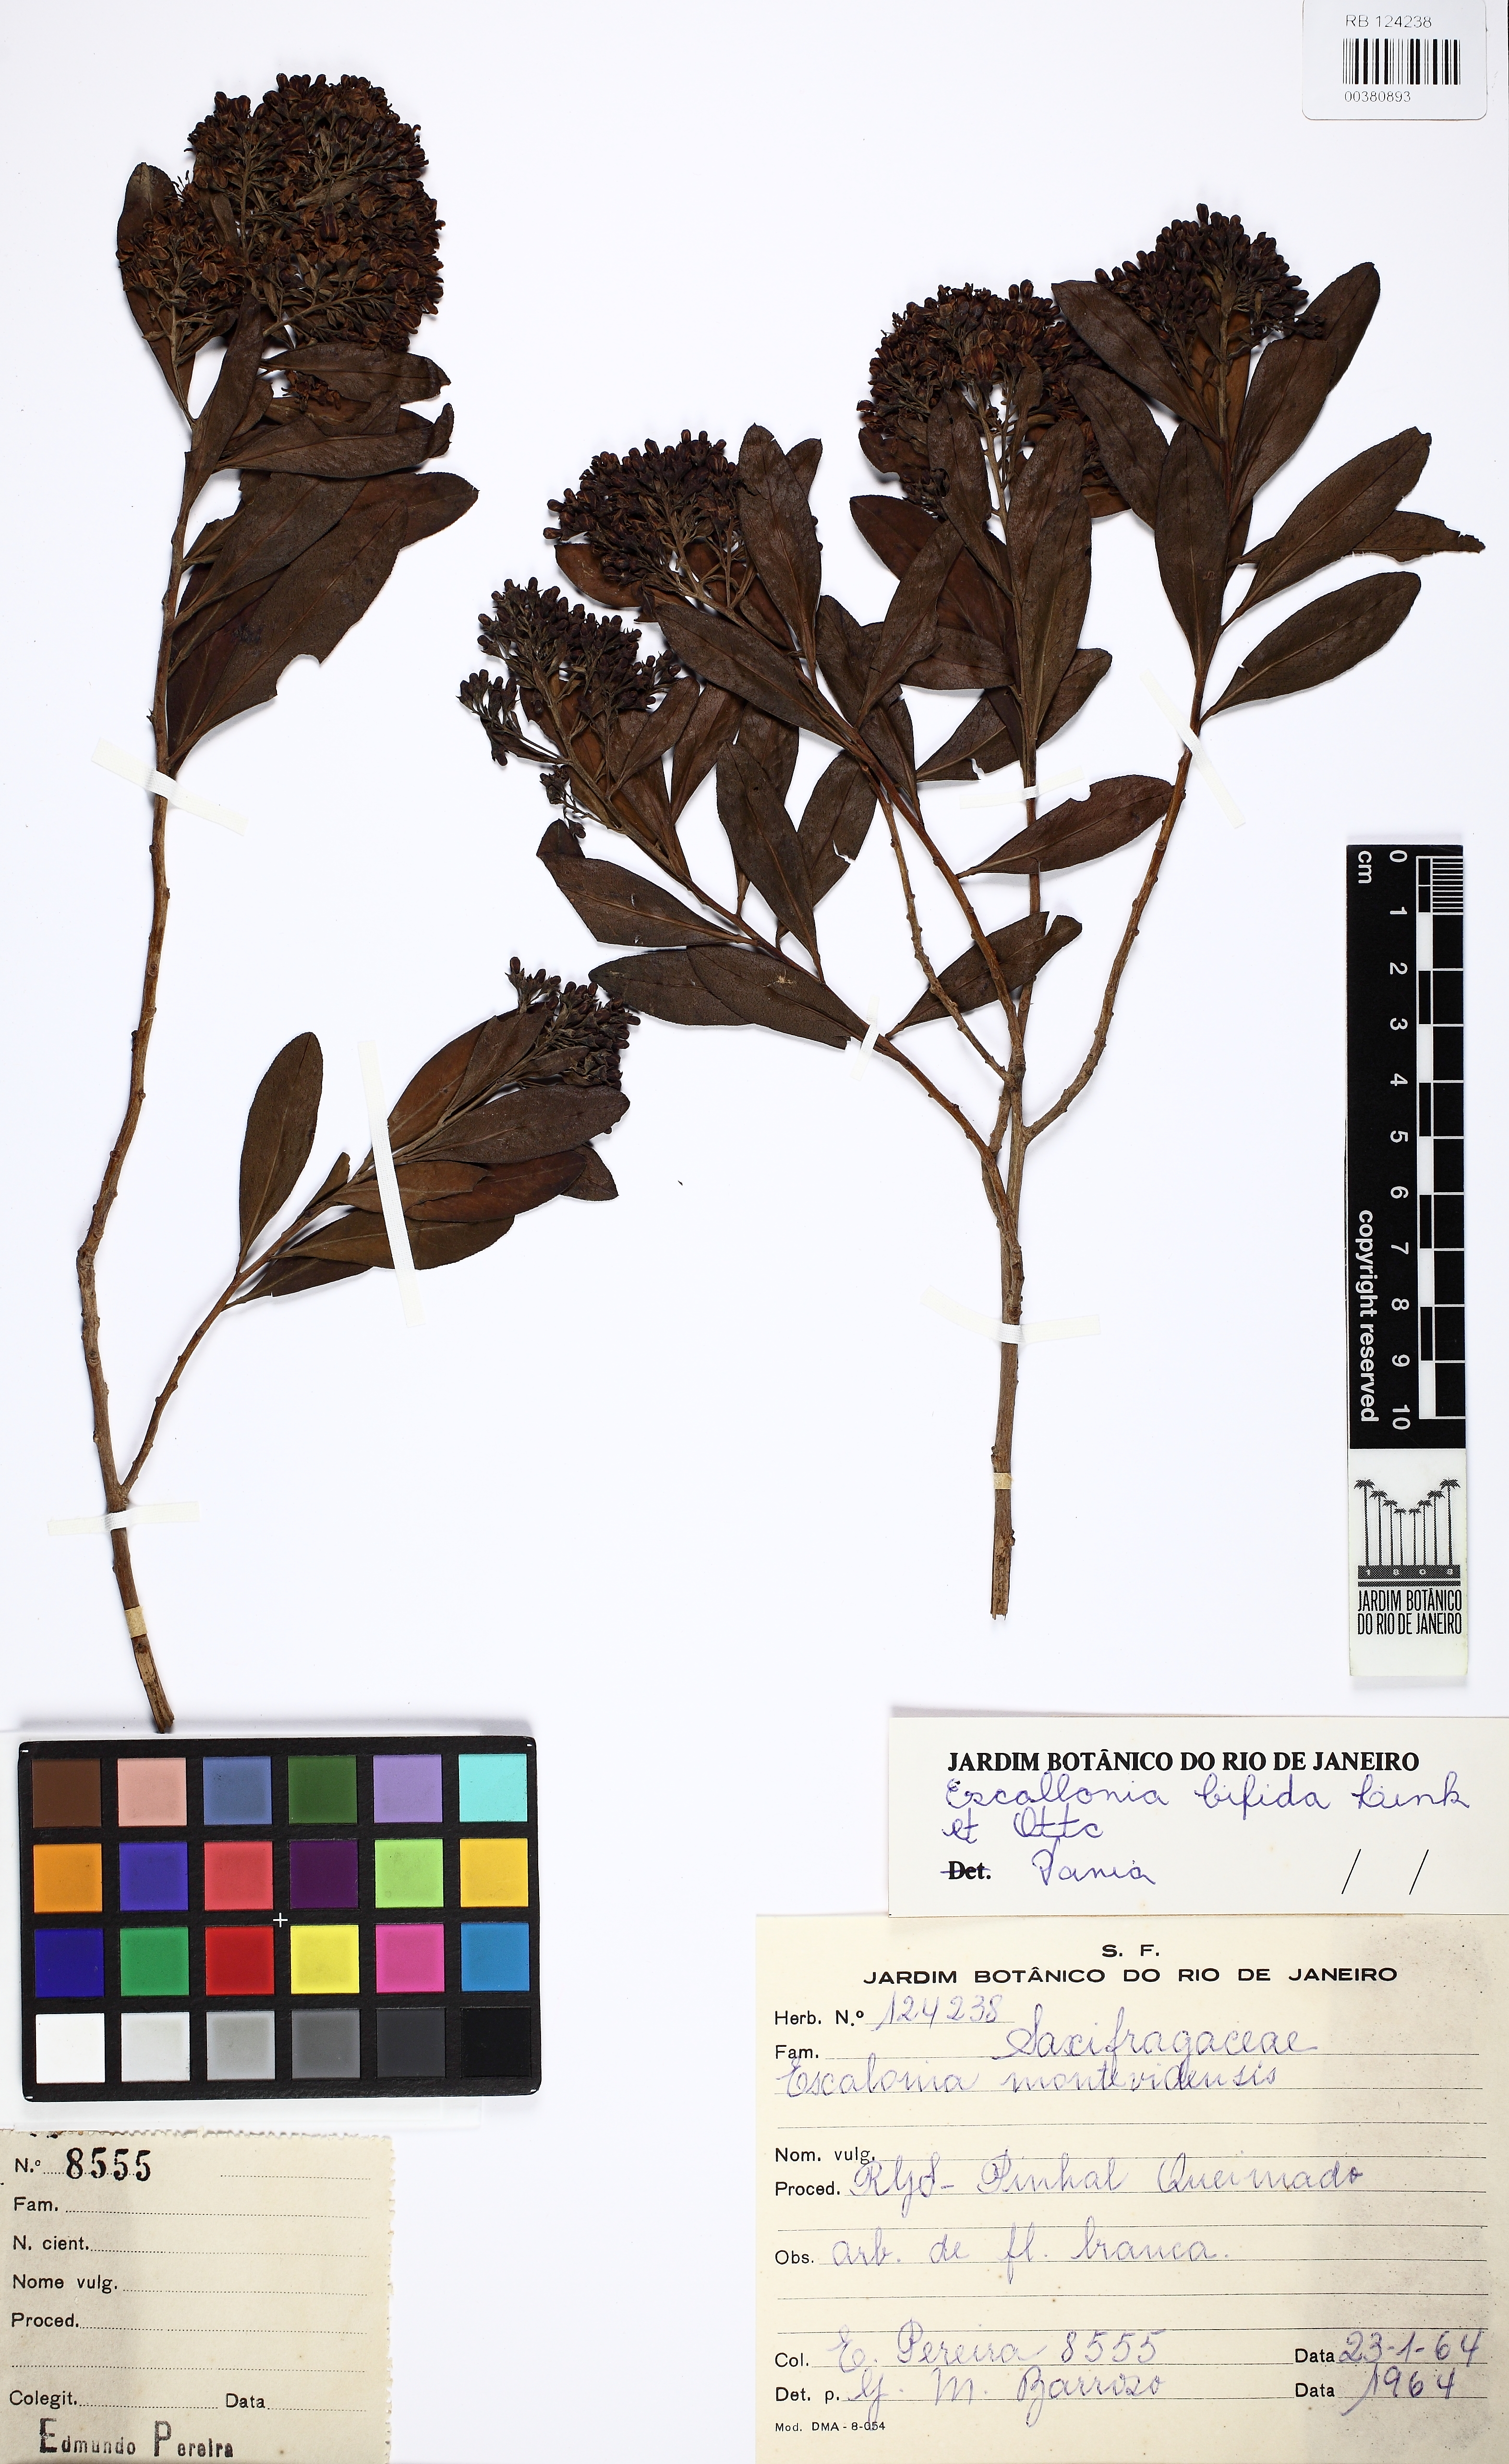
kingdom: Plantae
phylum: Tracheophyta
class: Magnoliopsida
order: Escalloniales
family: Escalloniaceae
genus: Escallonia
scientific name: Escallonia bifida
